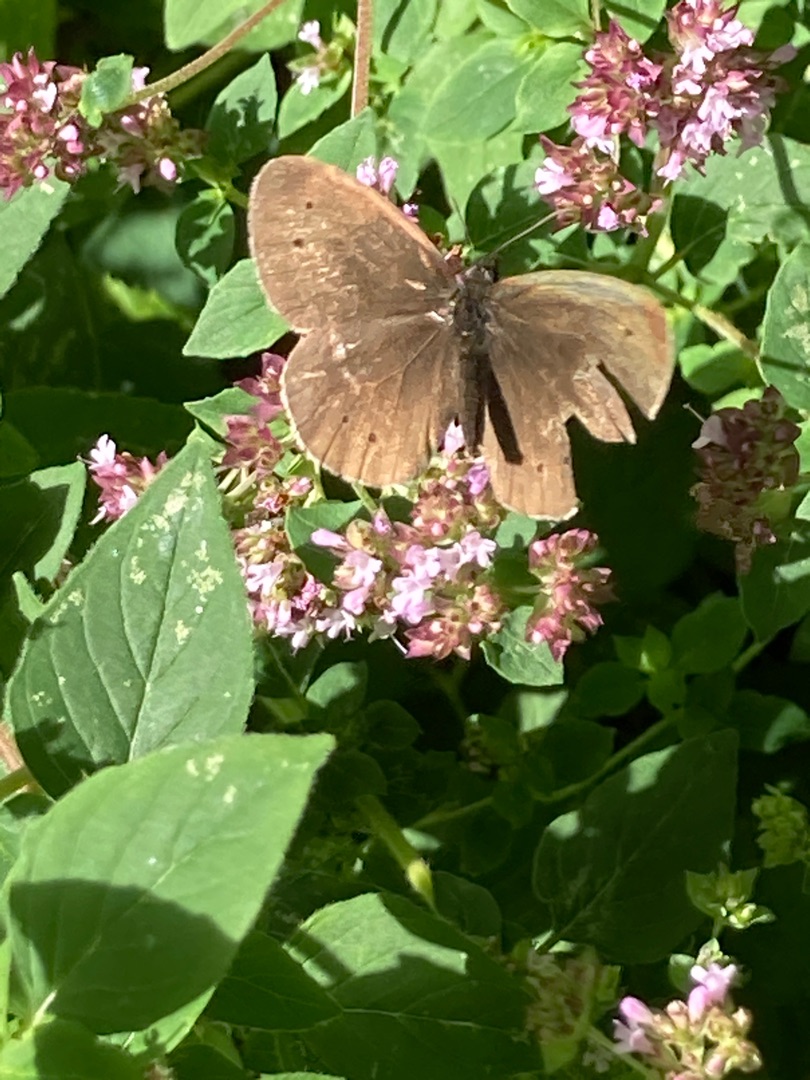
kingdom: Animalia
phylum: Arthropoda
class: Insecta
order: Lepidoptera
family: Nymphalidae
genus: Aphantopus
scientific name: Aphantopus hyperantus
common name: Engrandøje
